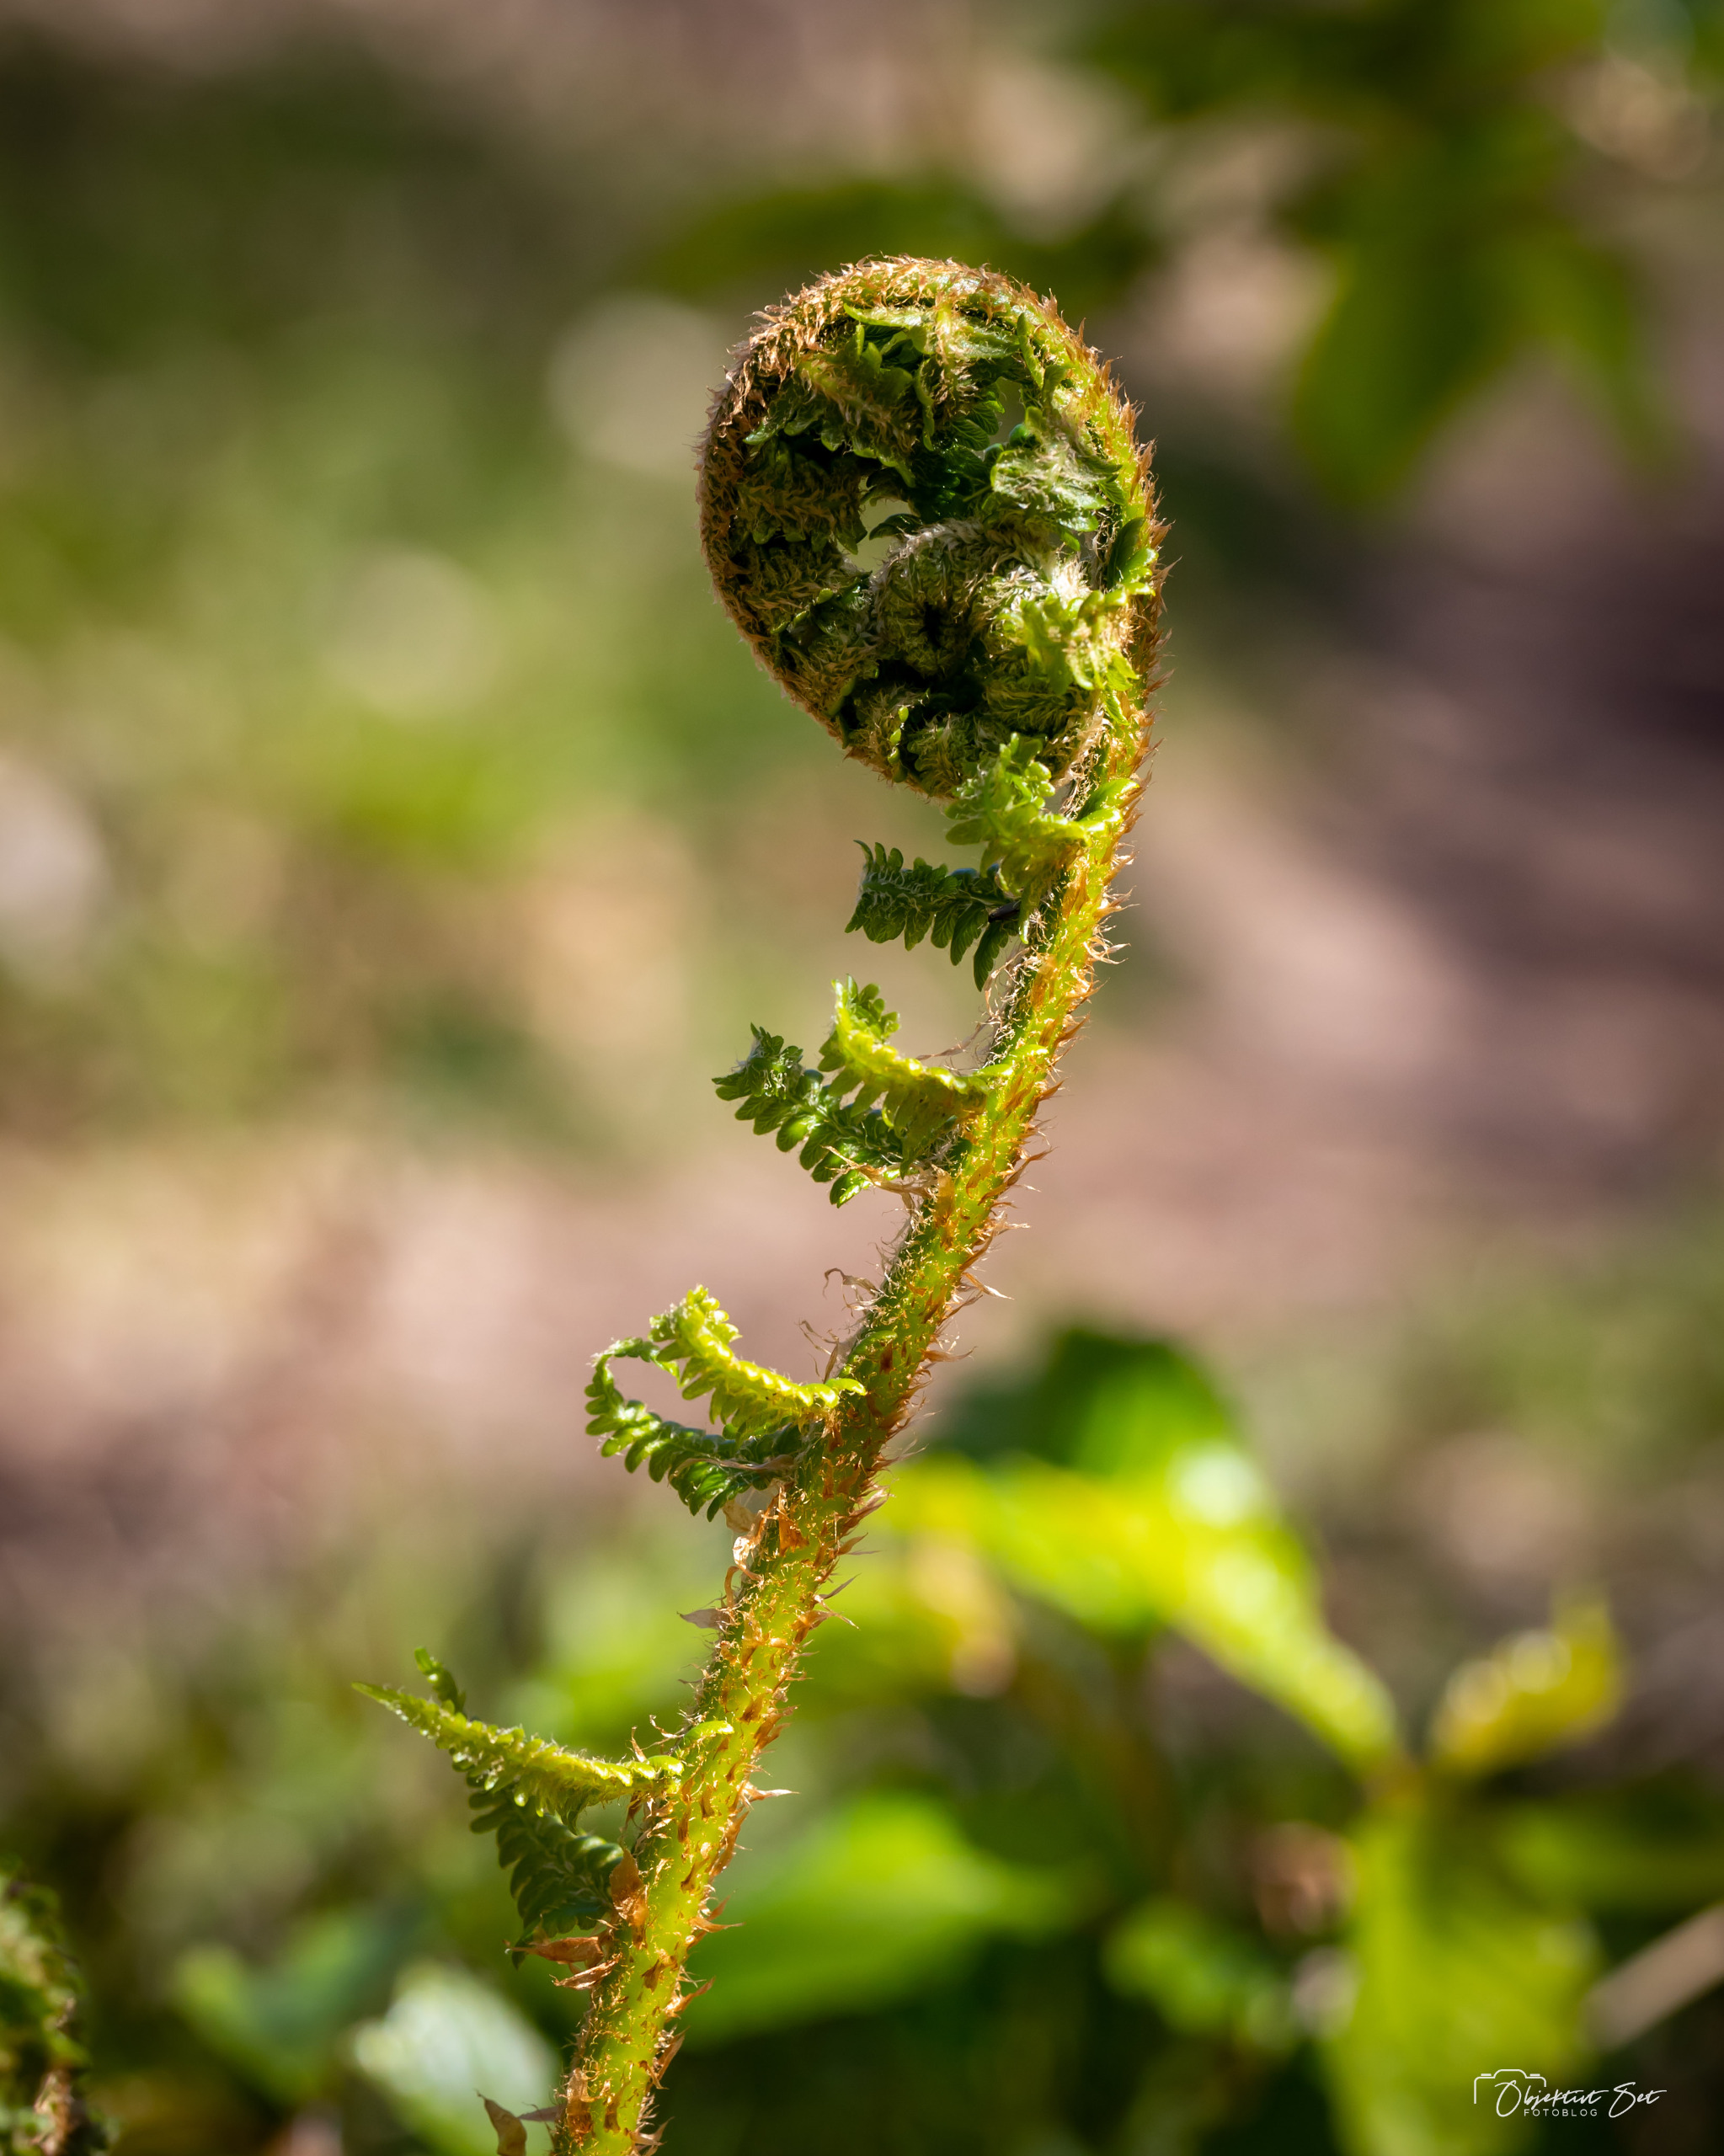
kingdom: Plantae
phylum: Tracheophyta
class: Polypodiopsida
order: Polypodiales
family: Dryopteridaceae
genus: Dryopteris
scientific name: Dryopteris filix-mas
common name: Almindelig mangeløv
